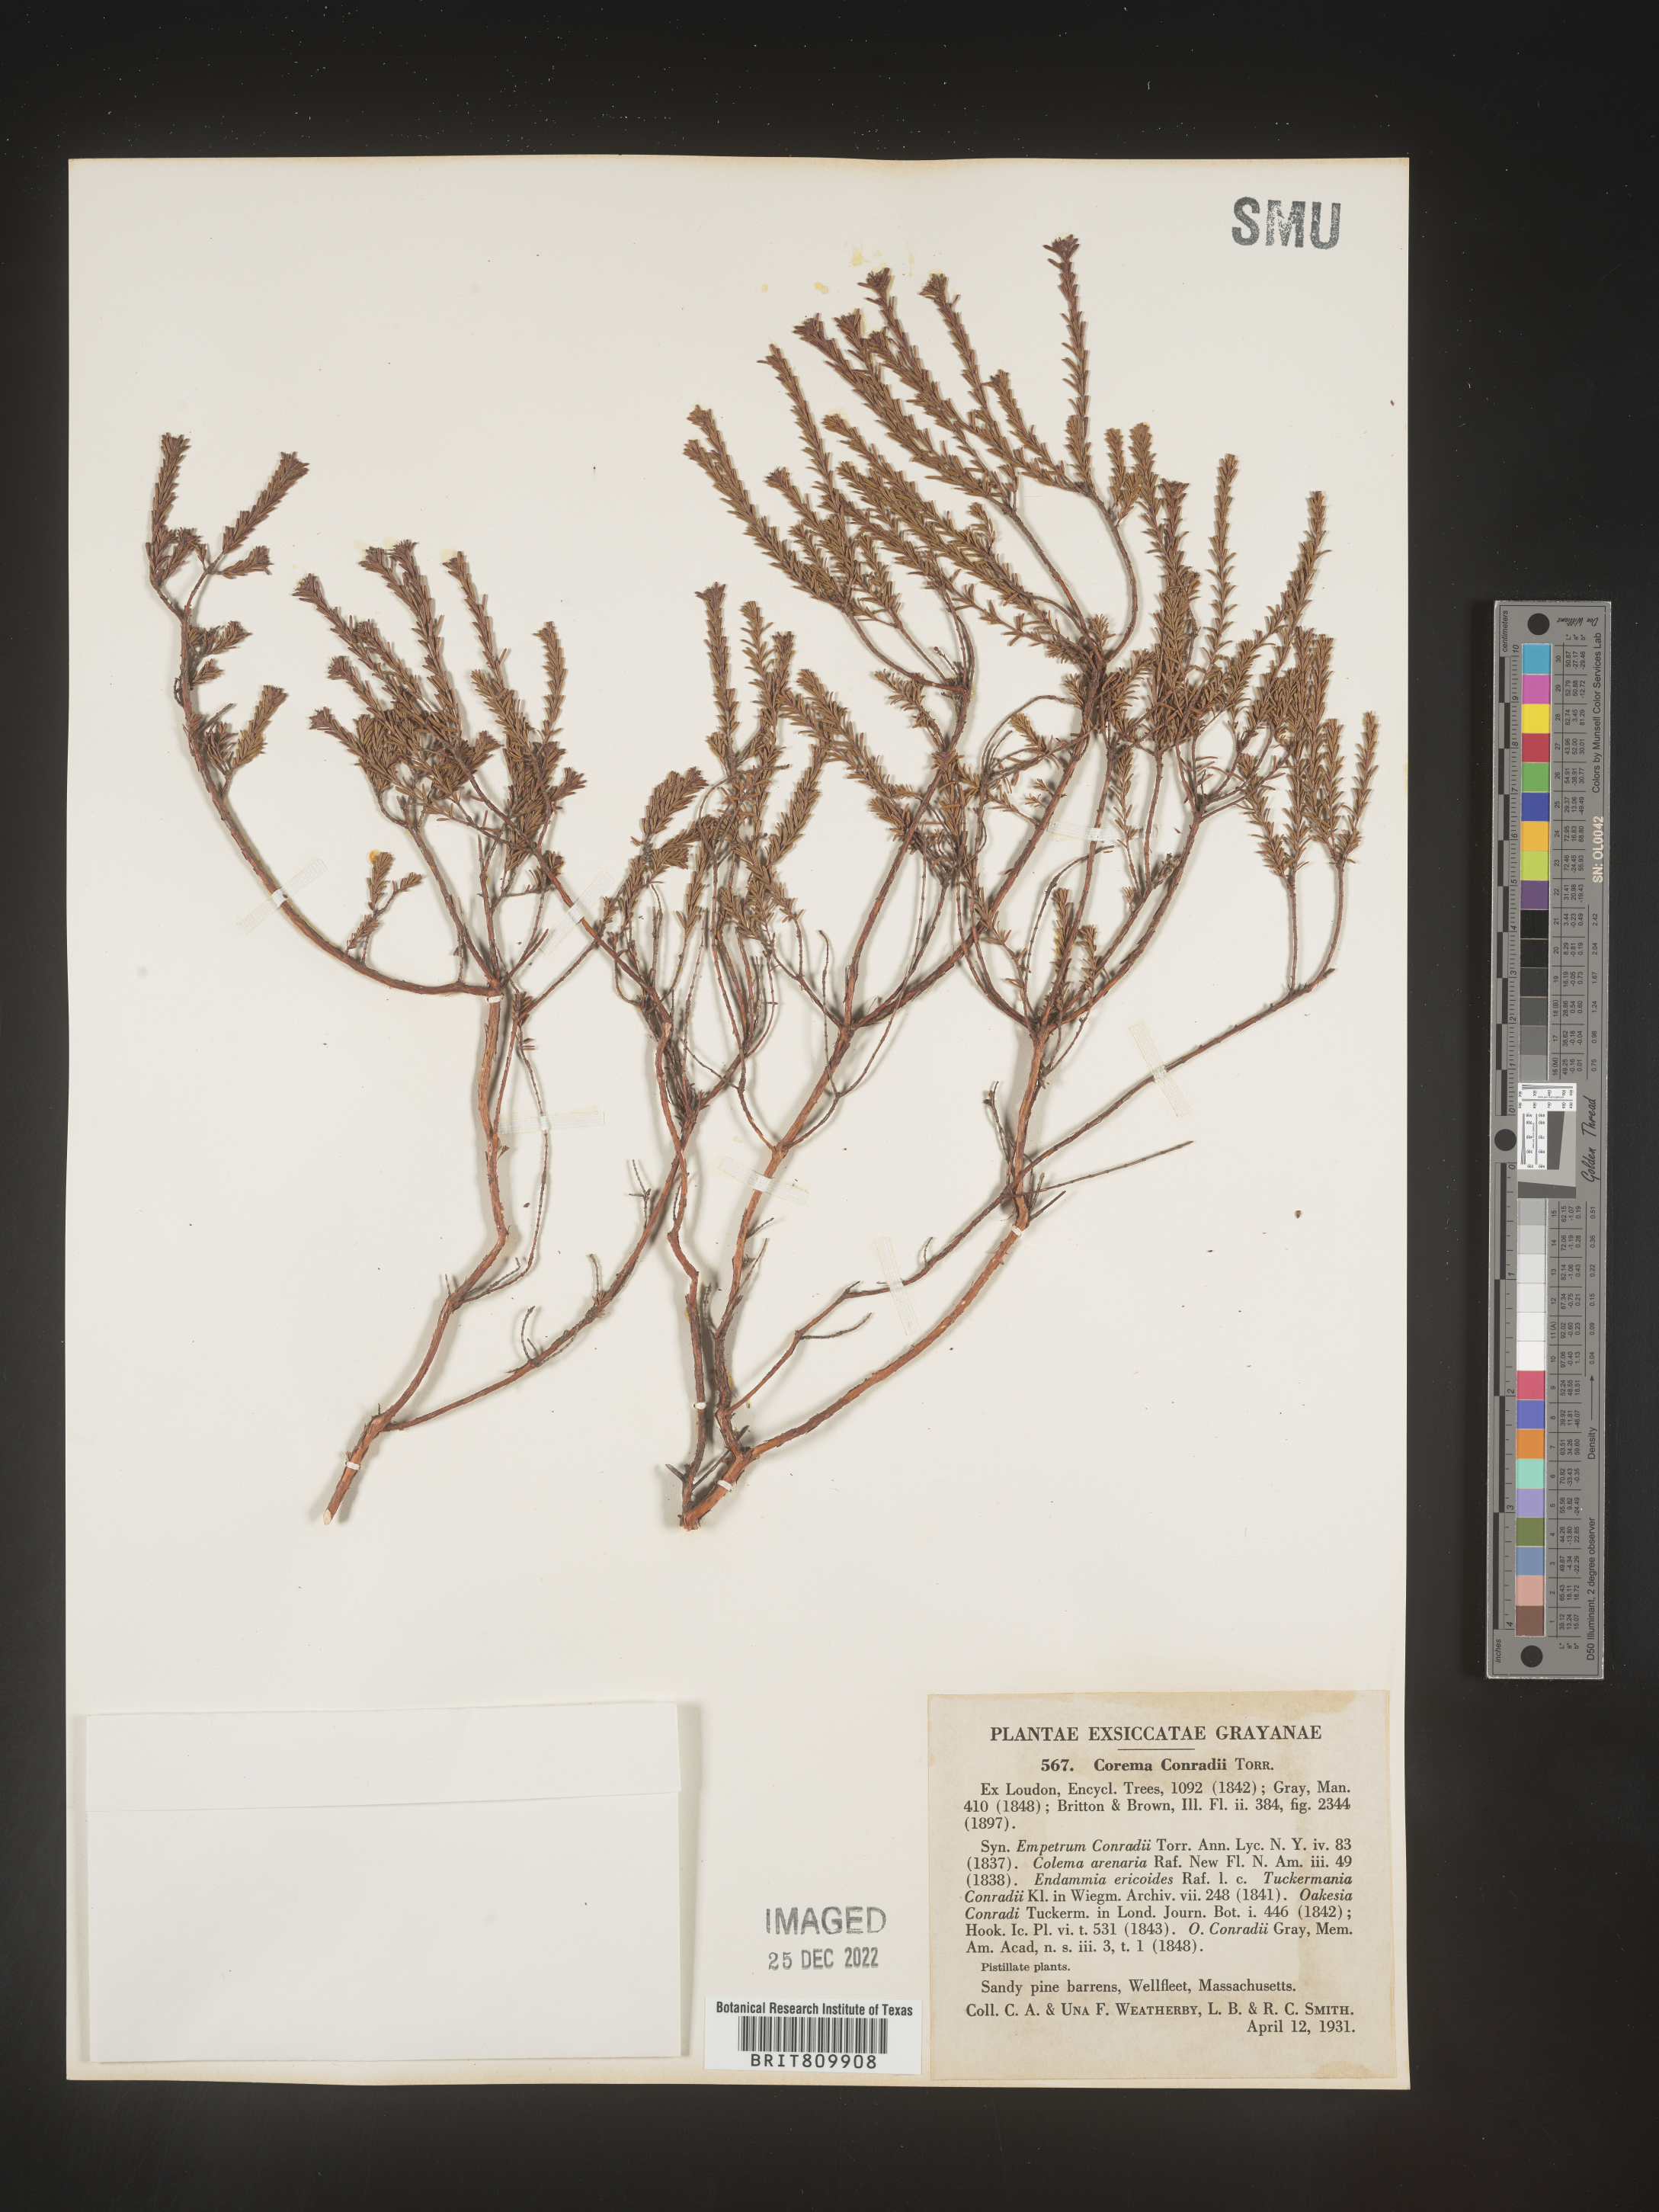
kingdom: Plantae
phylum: Tracheophyta
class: Magnoliopsida
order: Ericales
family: Ericaceae
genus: Corema
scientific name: Corema
